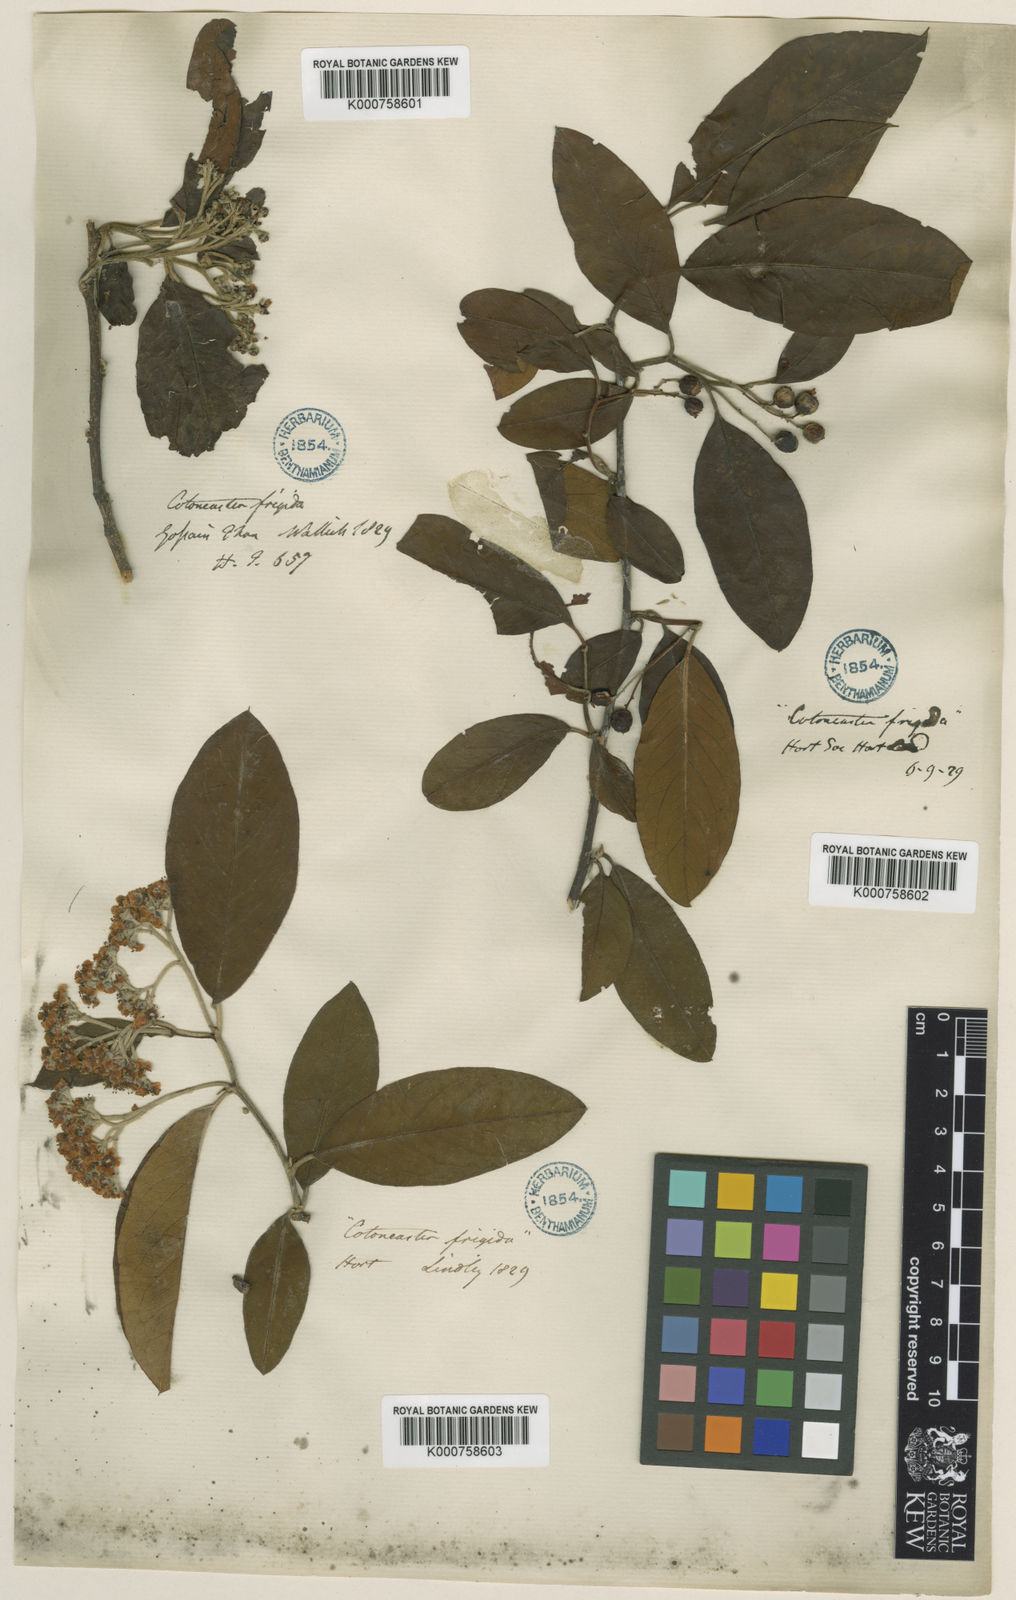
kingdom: Plantae
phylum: Tracheophyta
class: Magnoliopsida
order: Rosales
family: Rosaceae
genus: Cotoneaster
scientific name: Cotoneaster
